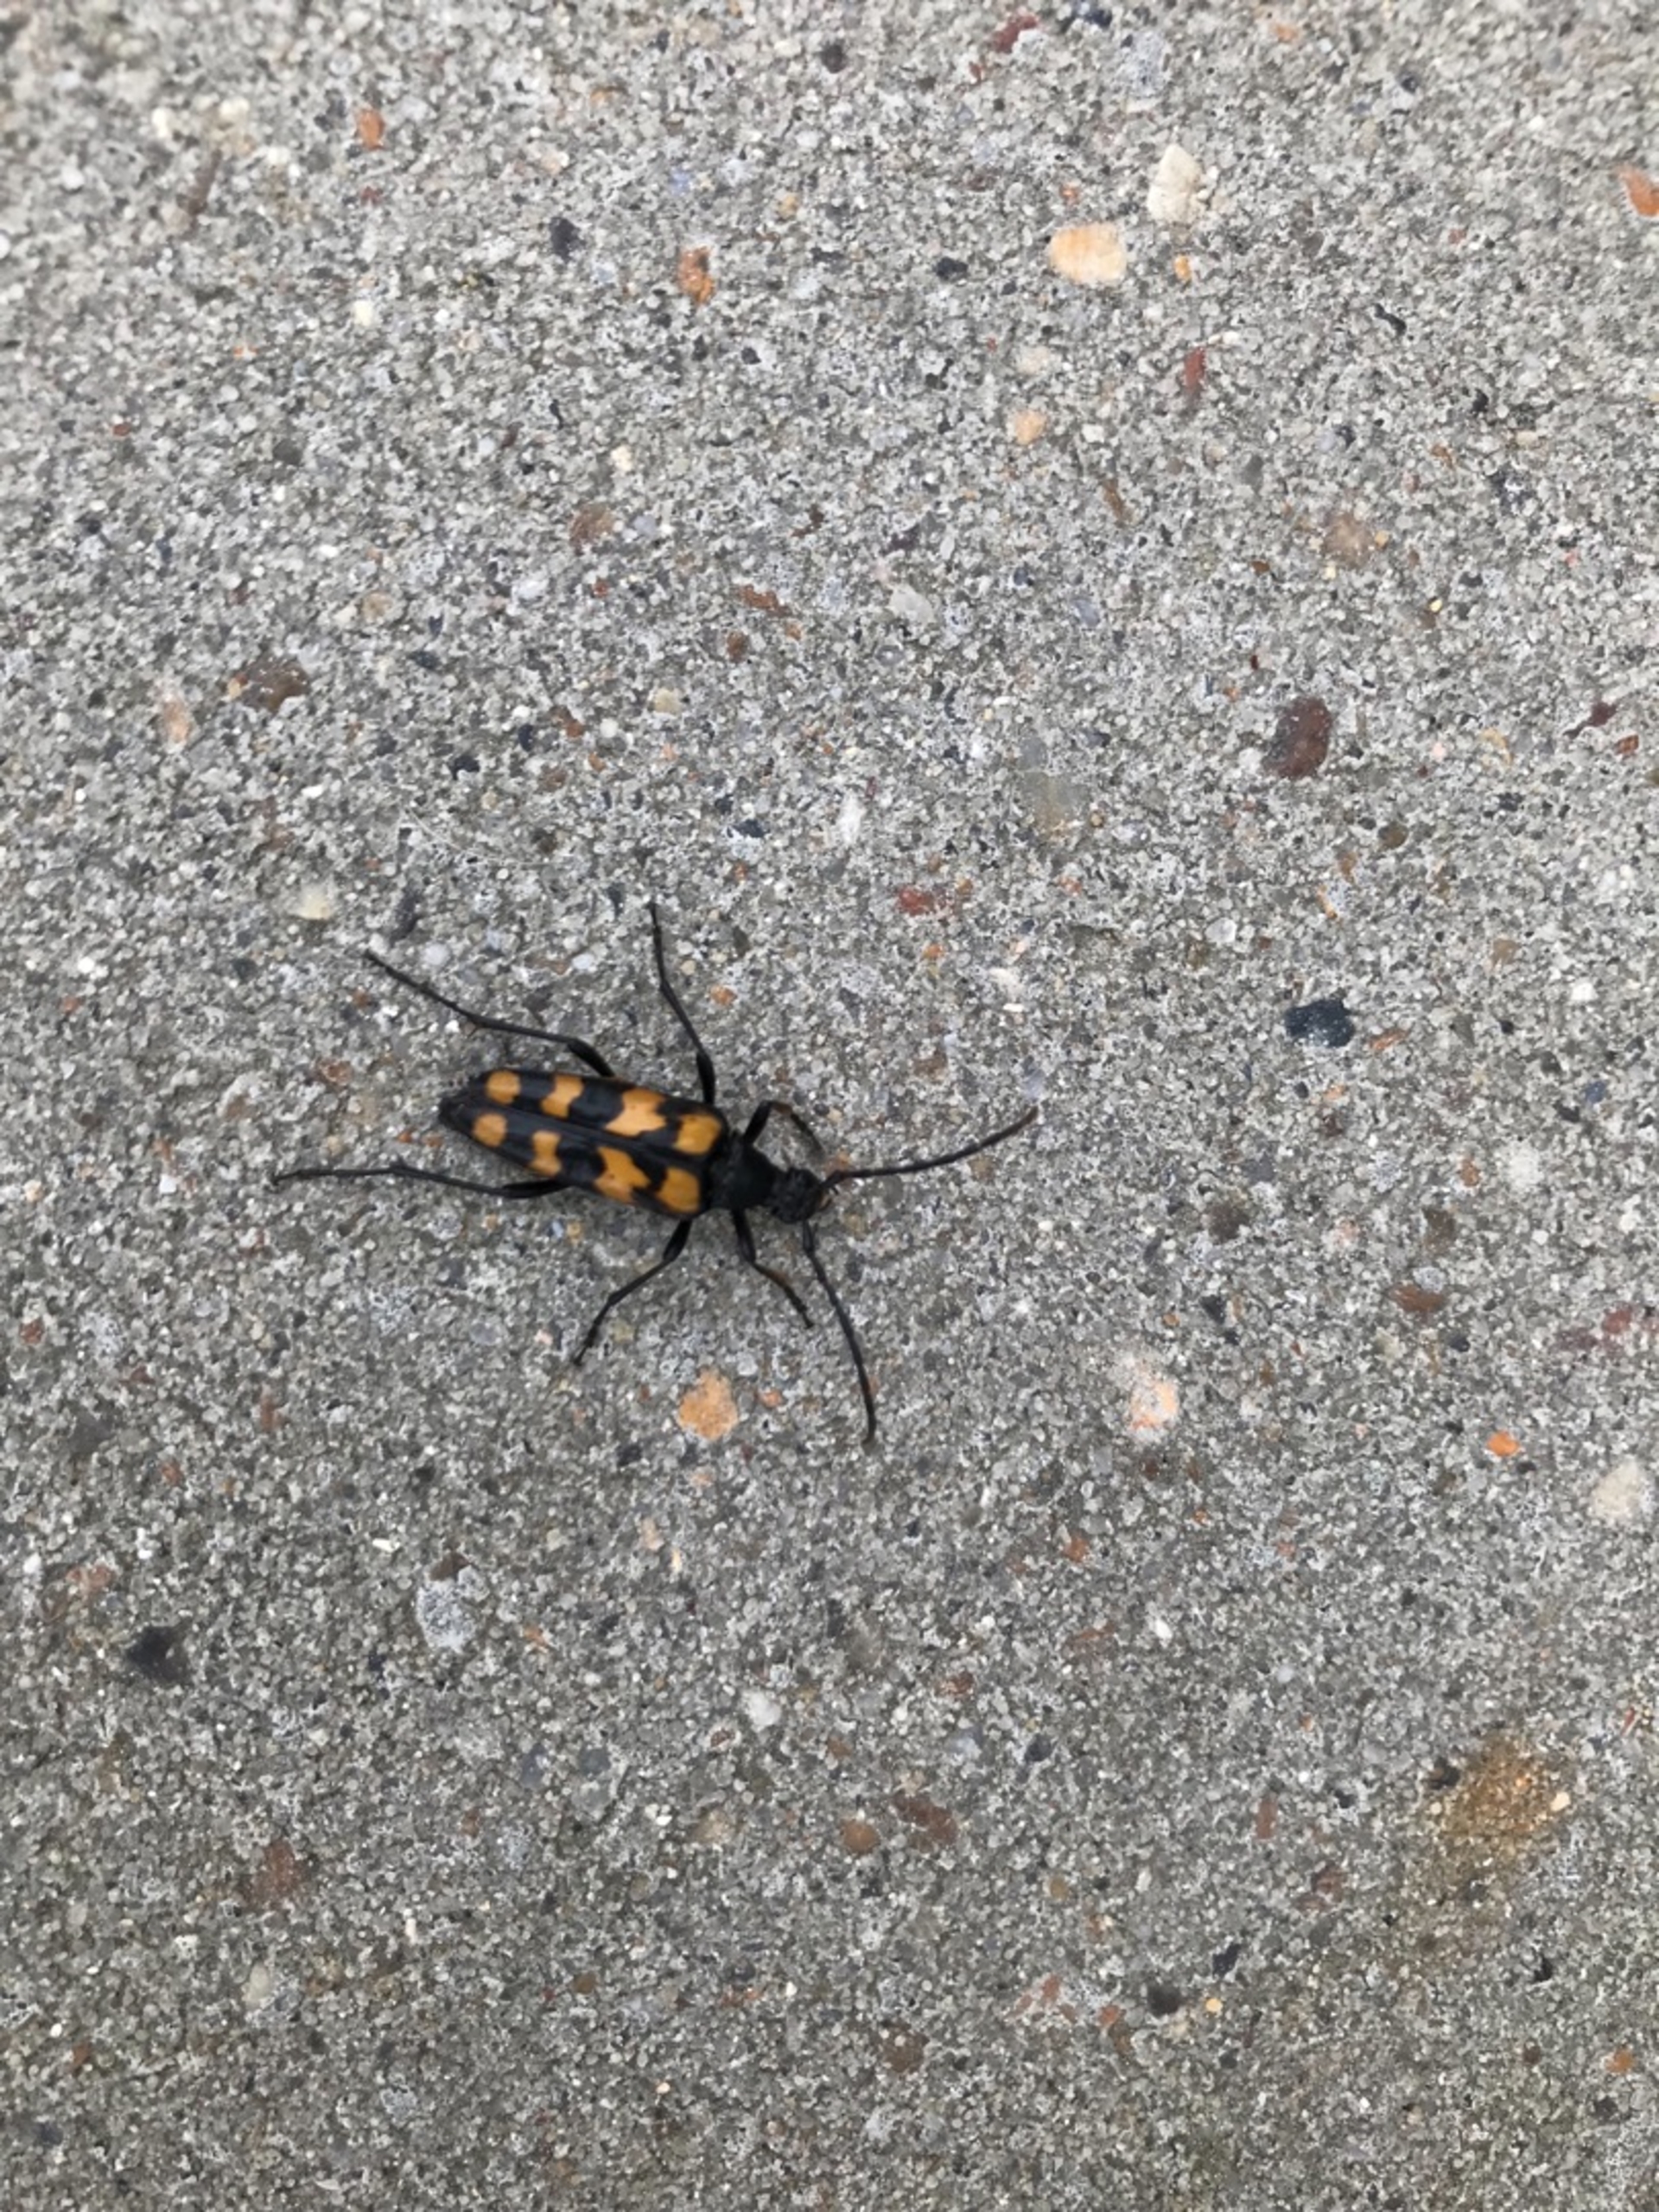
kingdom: Animalia
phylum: Arthropoda
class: Insecta
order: Coleoptera
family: Cerambycidae
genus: Leptura
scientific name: Leptura quadrifasciata
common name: Firebåndet blomsterbuk
